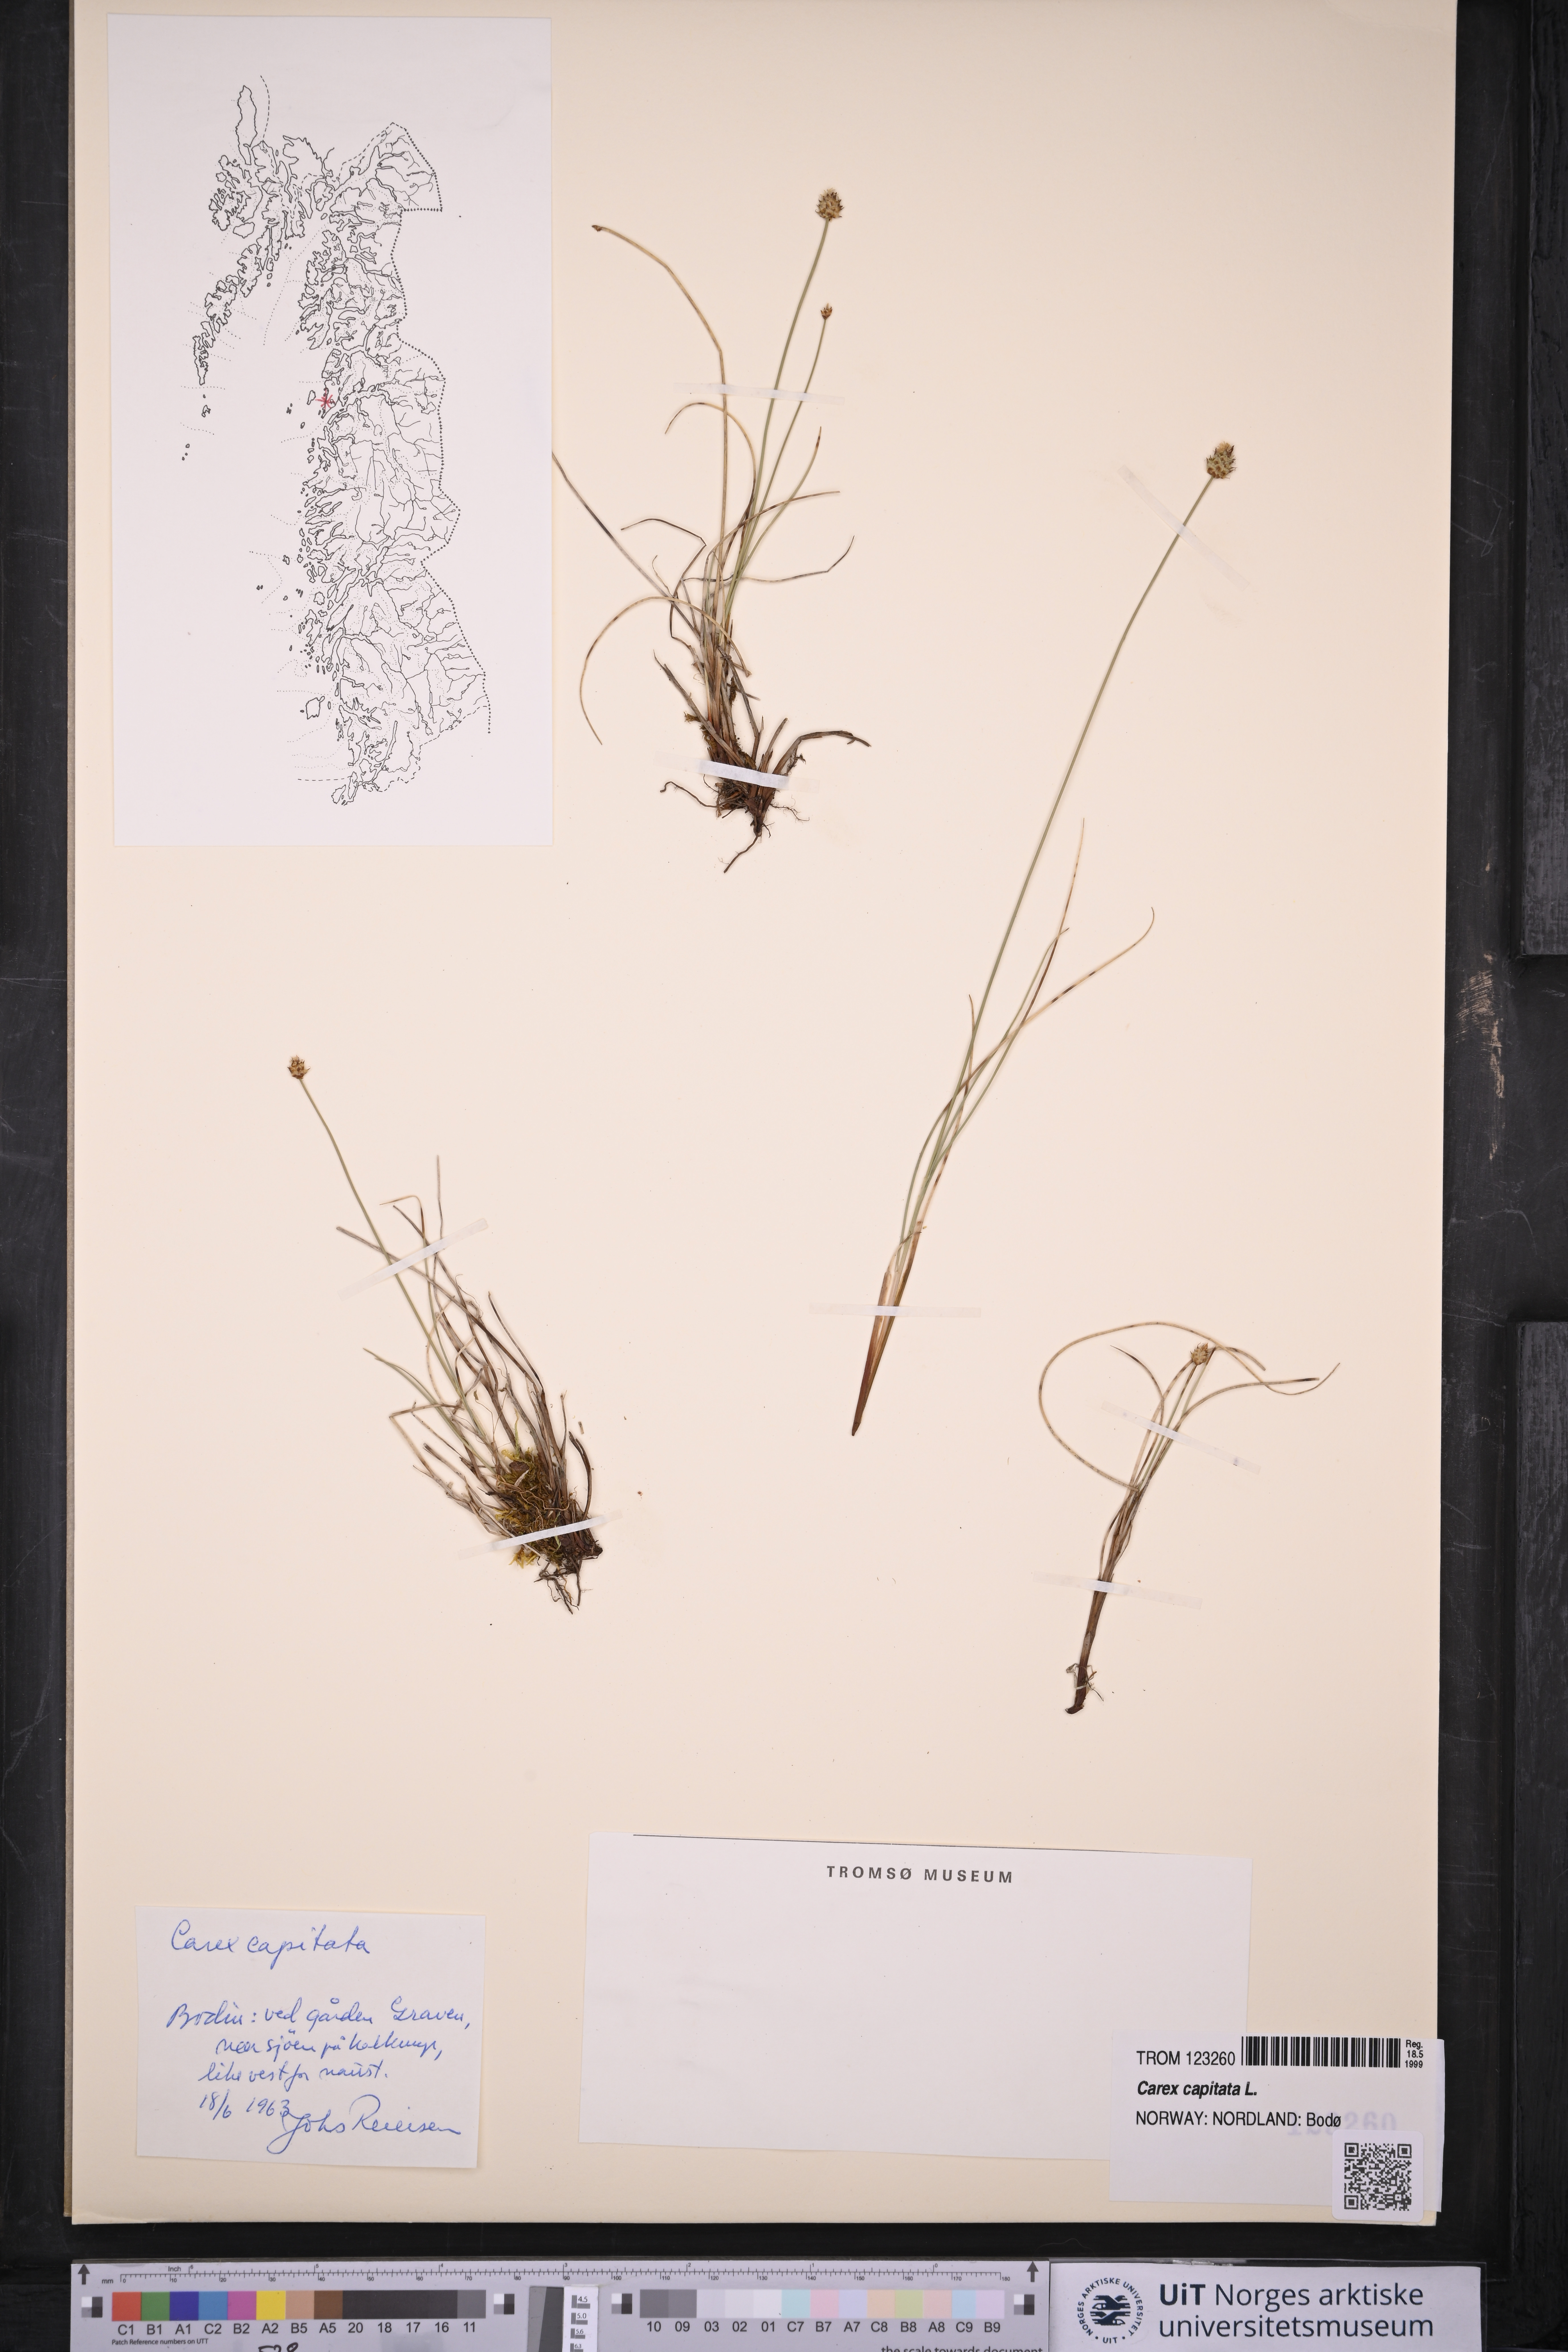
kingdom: Plantae
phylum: Tracheophyta
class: Liliopsida
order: Poales
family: Cyperaceae
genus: Carex
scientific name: Carex capitata
